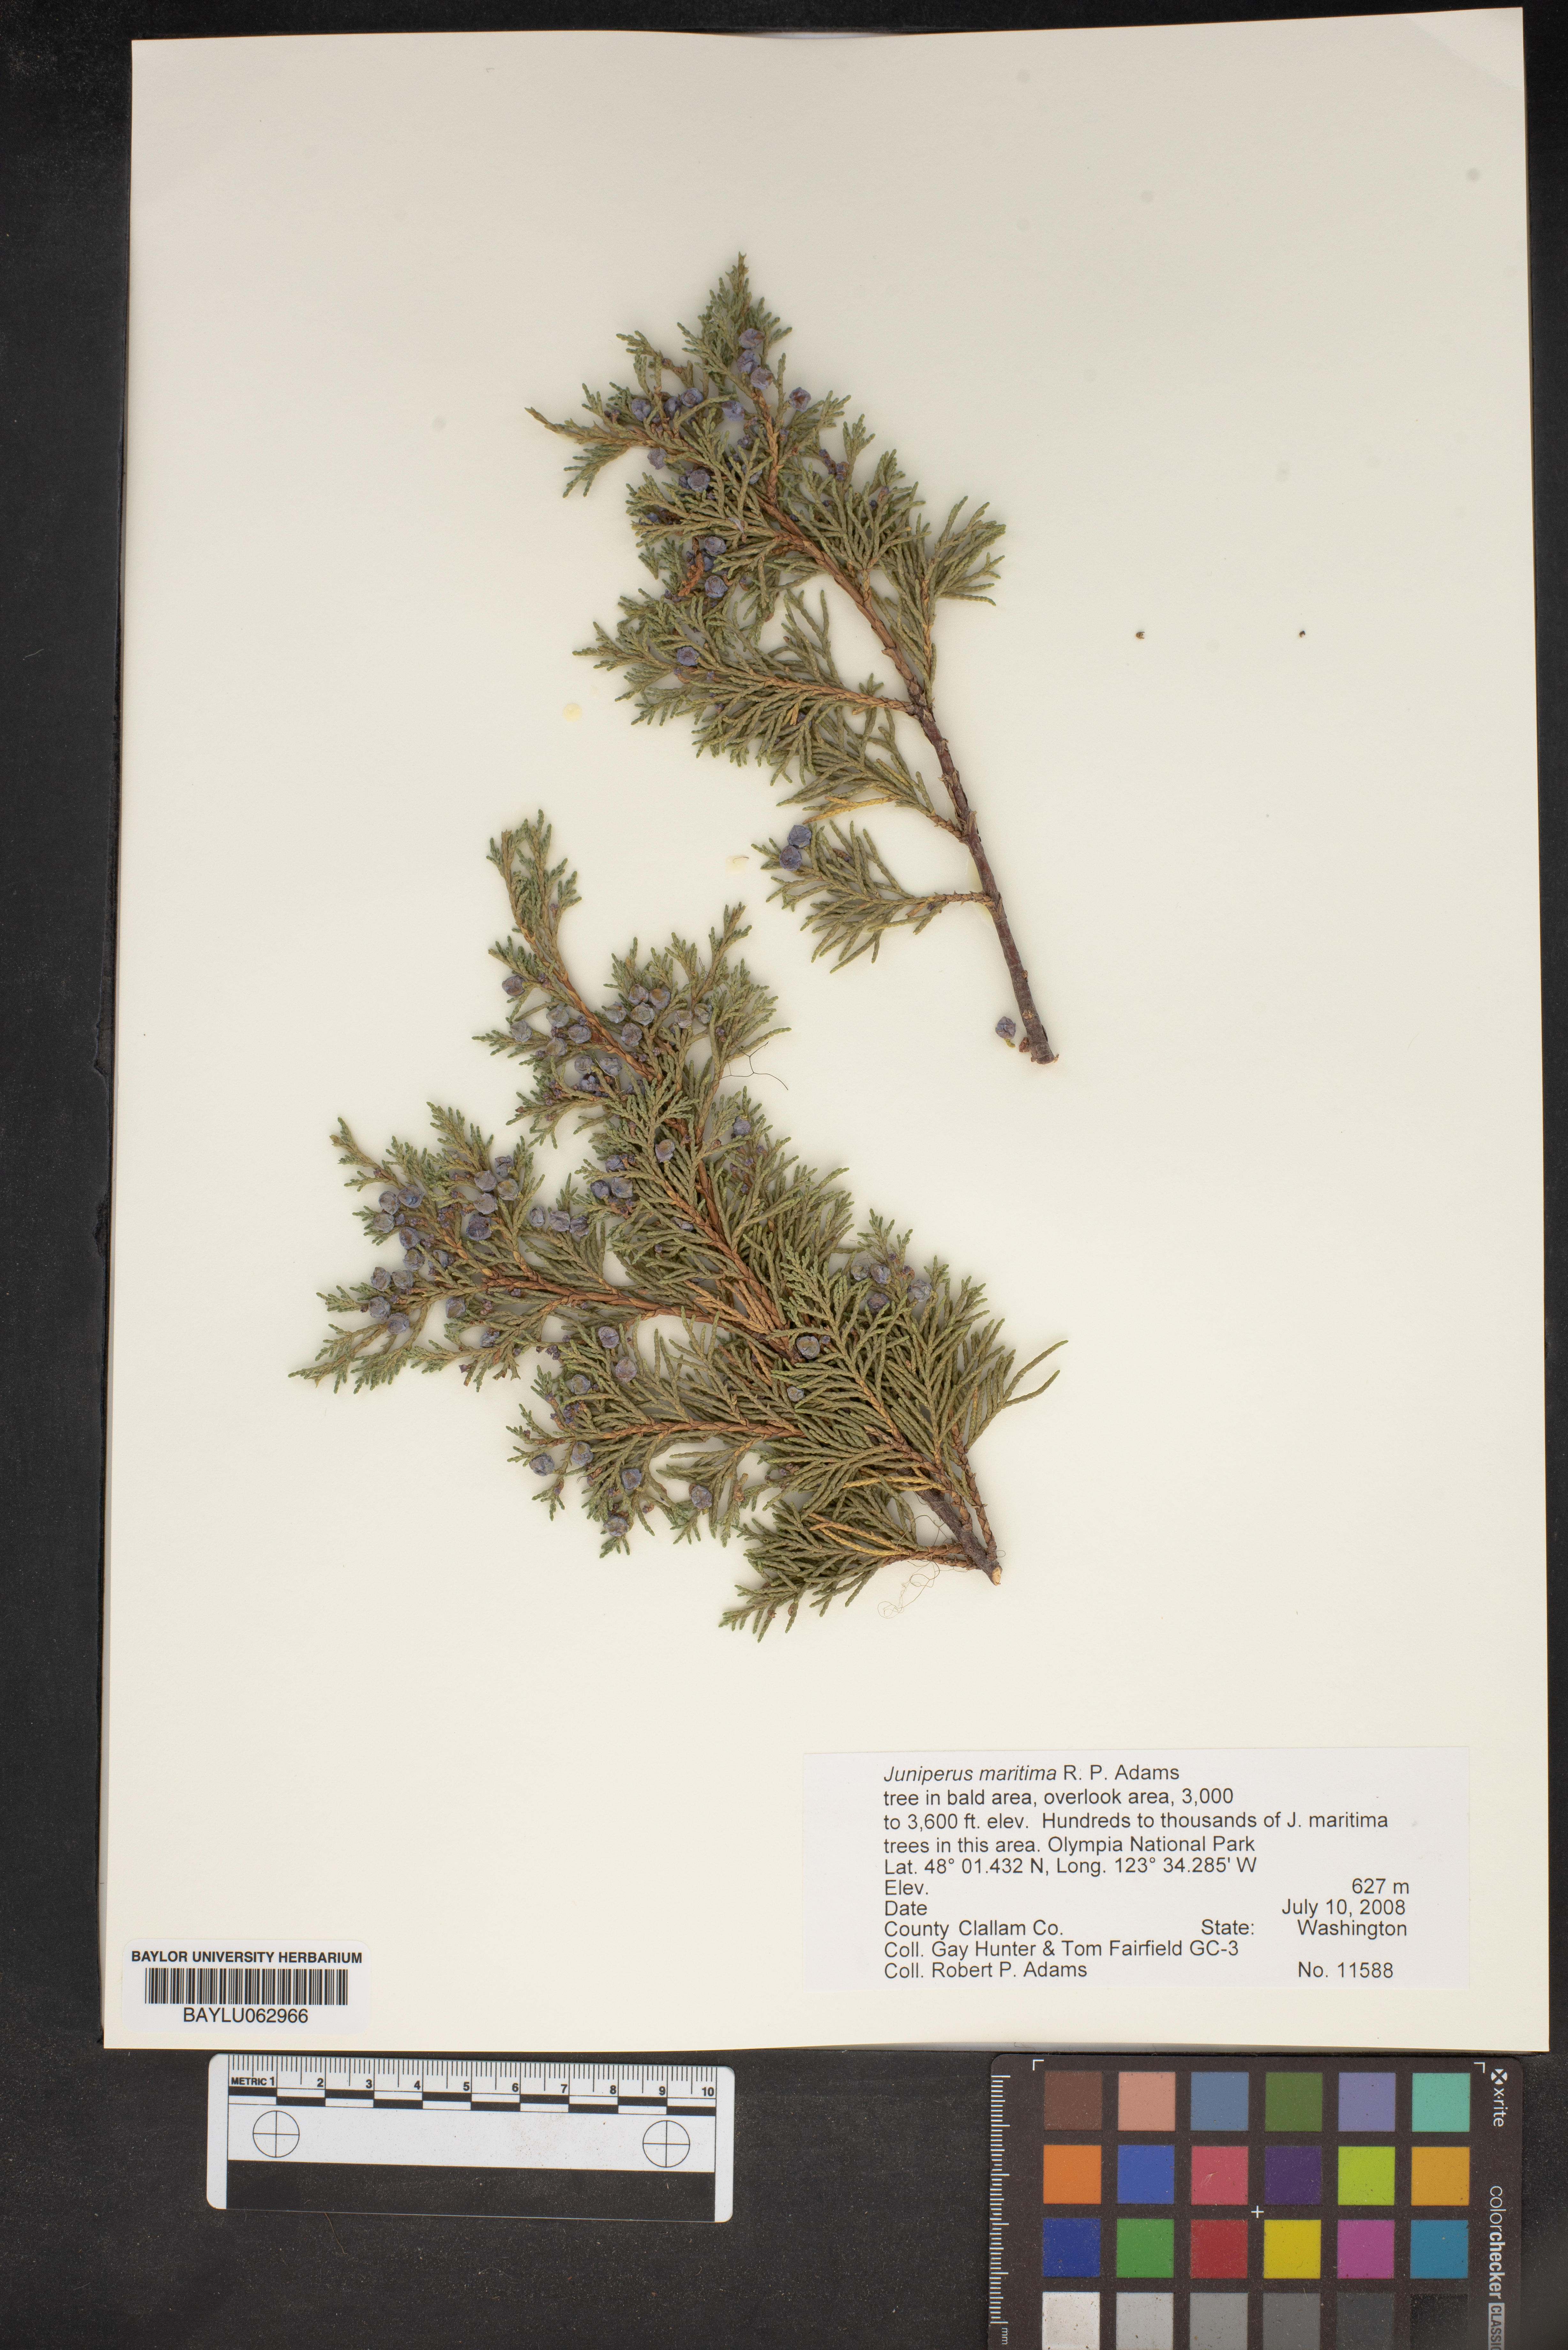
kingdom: Plantae
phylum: Tracheophyta
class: Pinopsida
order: Pinales
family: Cupressaceae
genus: Juniperus
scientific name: Juniperus scopulorum
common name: Rocky mountain juniper
